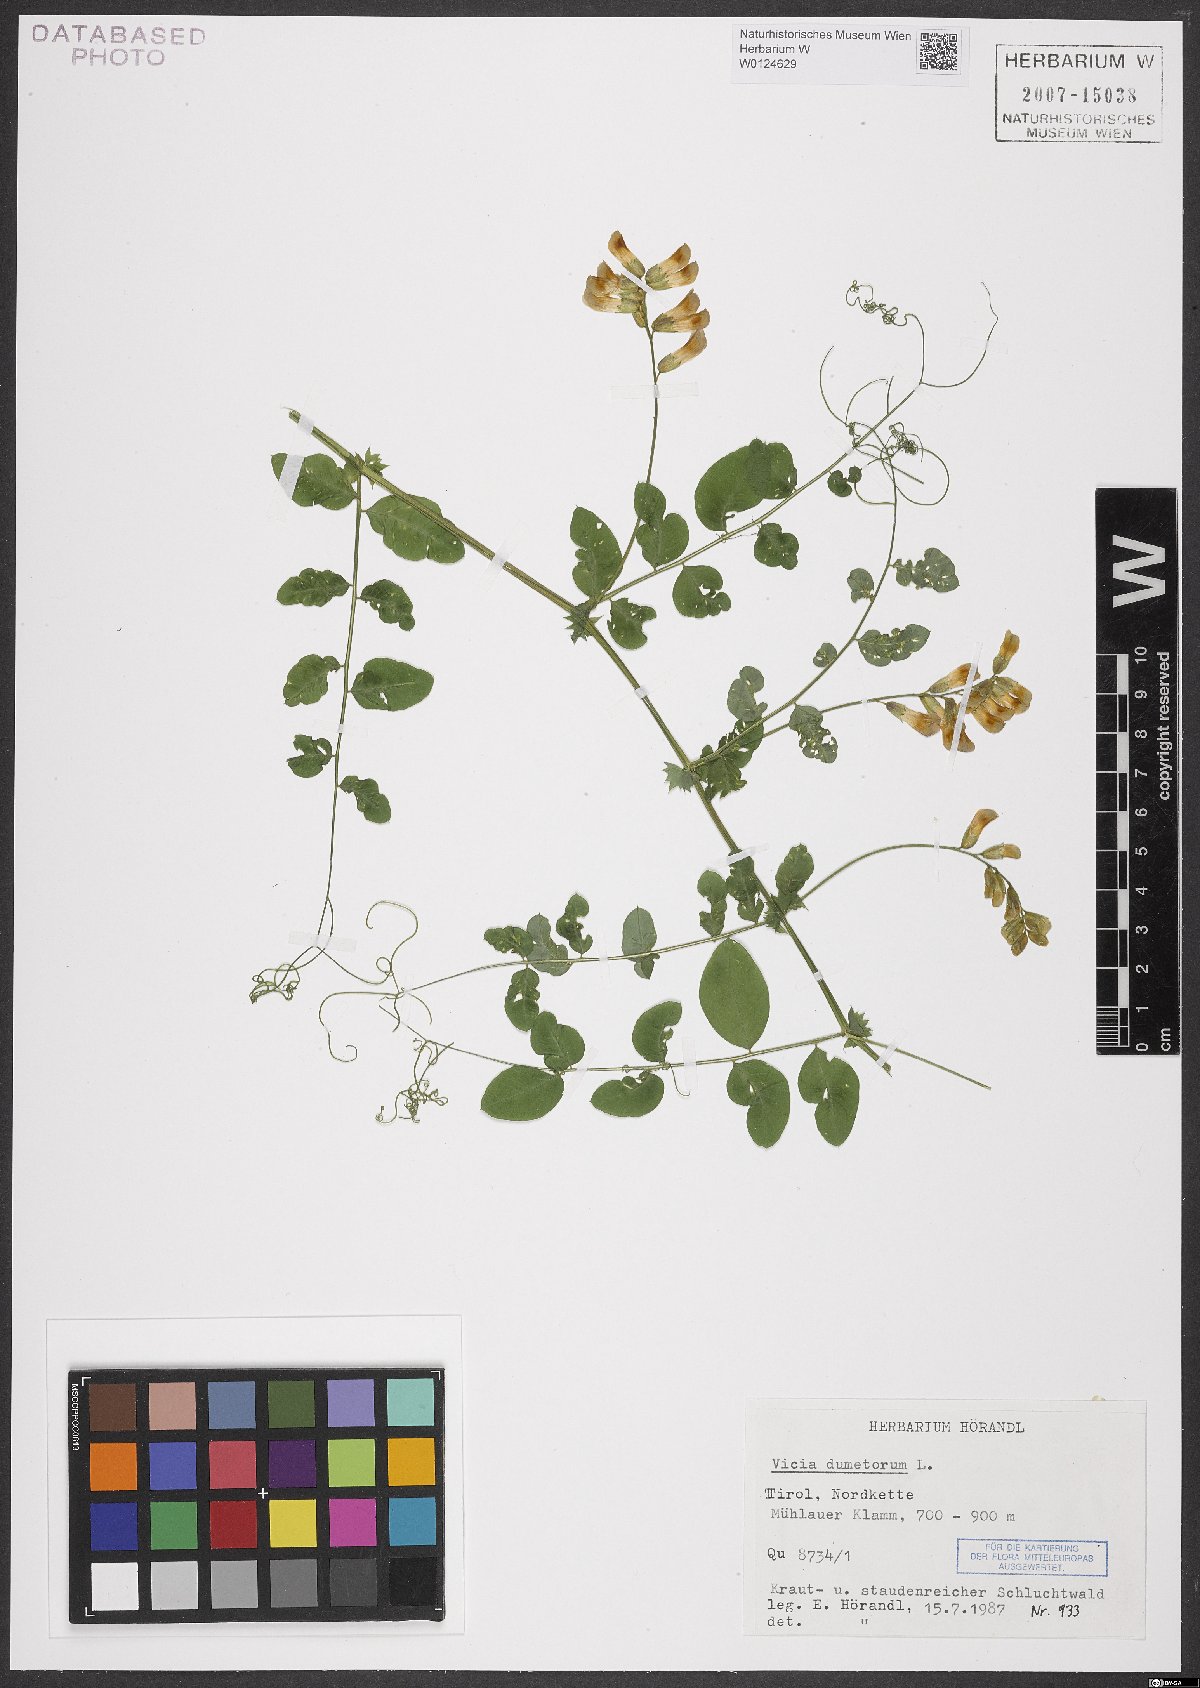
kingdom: Plantae
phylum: Tracheophyta
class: Magnoliopsida
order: Fabales
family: Fabaceae
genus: Vicia
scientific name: Vicia dumetorum
